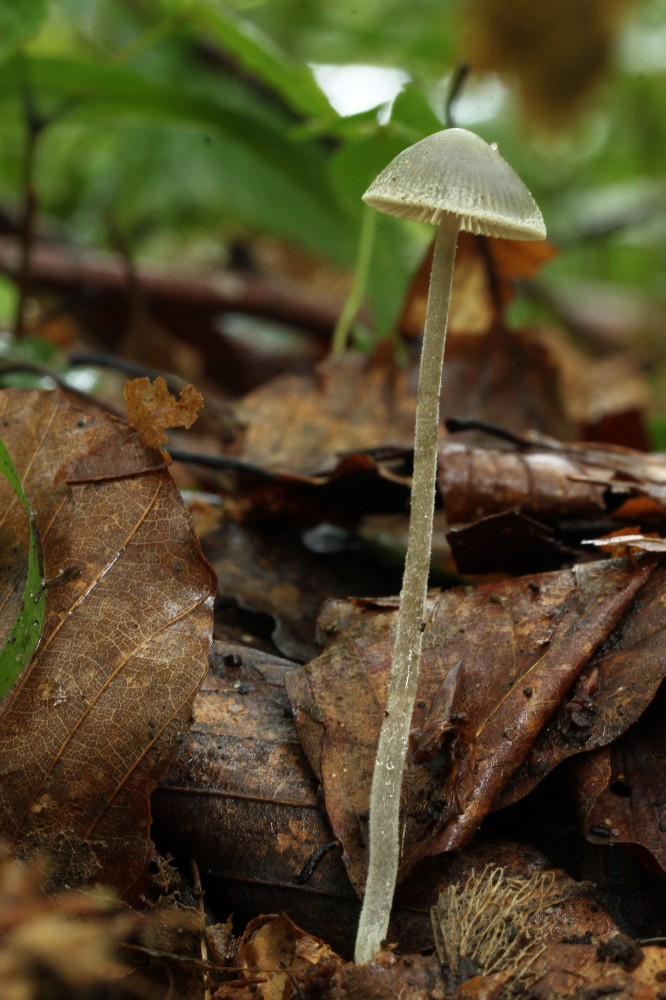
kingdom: Fungi
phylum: Basidiomycota
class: Agaricomycetes
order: Agaricales
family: Mycenaceae
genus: Mycena
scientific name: Mycena amicta
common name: iris-huesvamp
